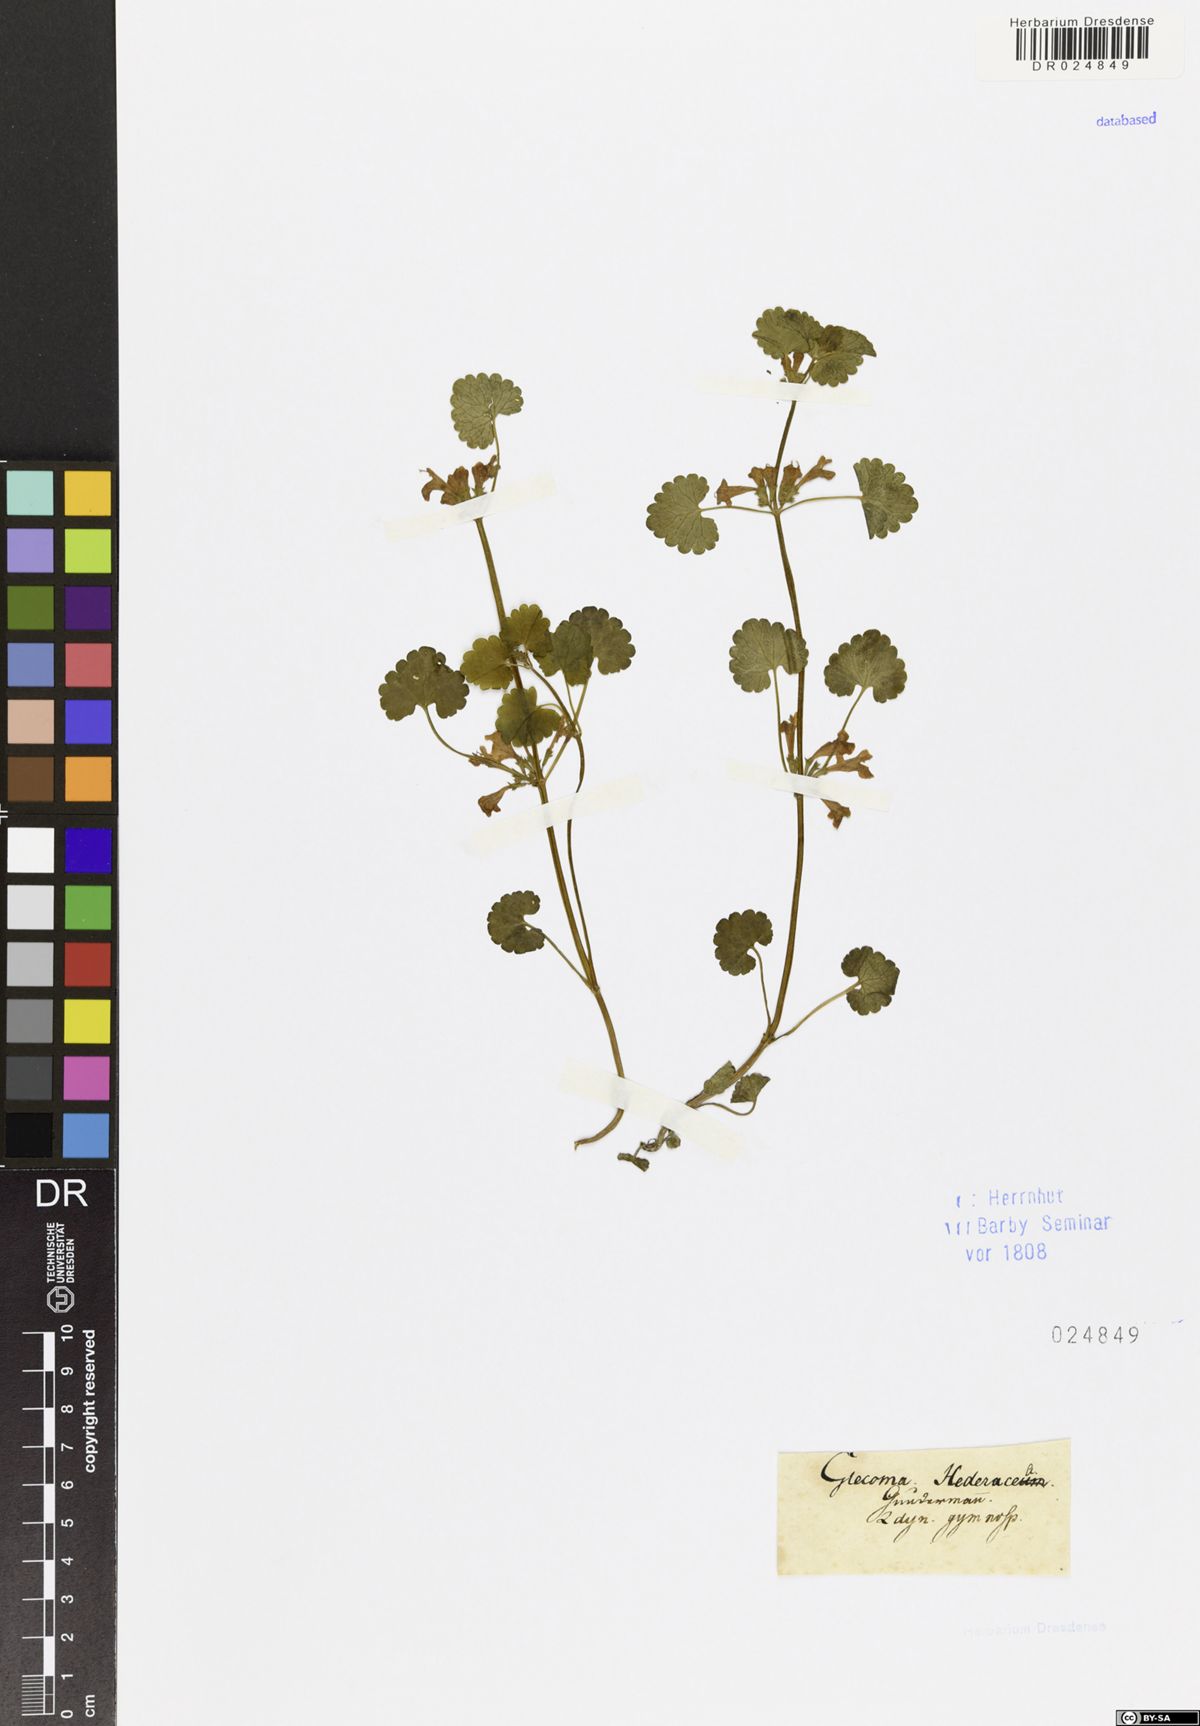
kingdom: Plantae
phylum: Tracheophyta
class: Magnoliopsida
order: Lamiales
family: Lamiaceae
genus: Glechoma
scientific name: Glechoma hederacea
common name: Ground ivy
